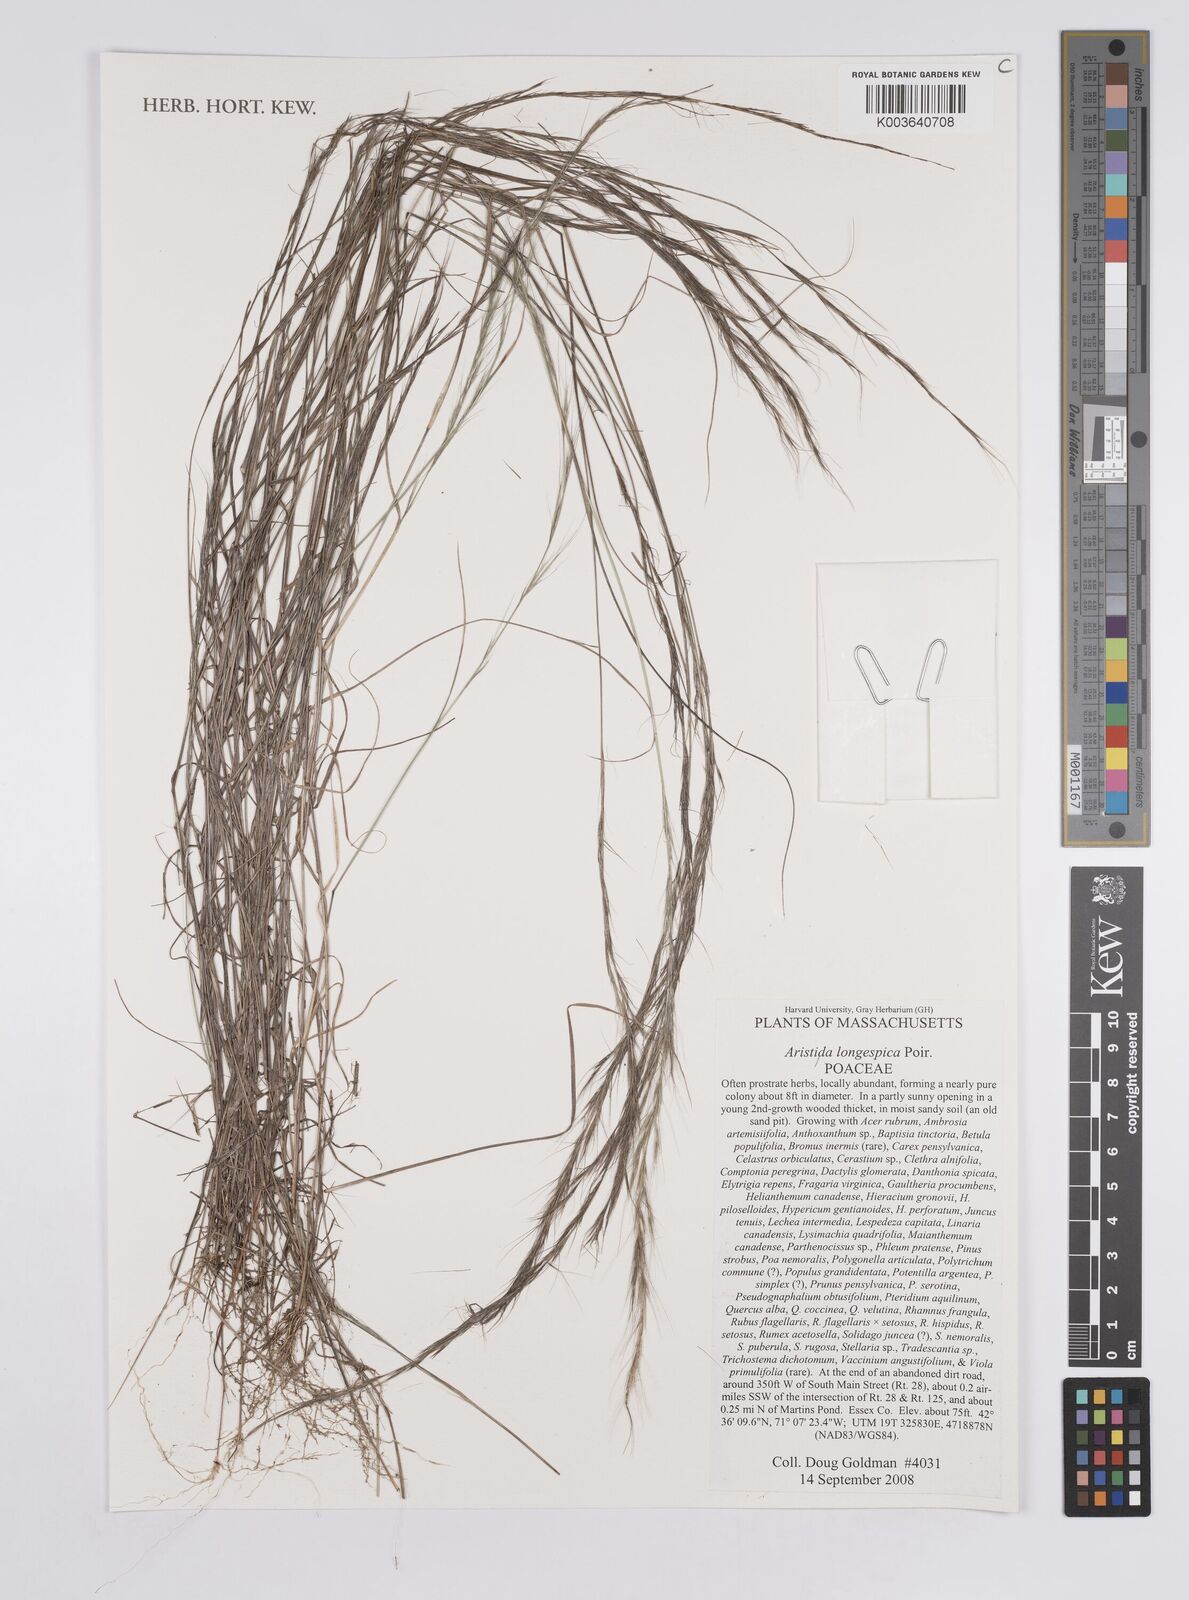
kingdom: Plantae
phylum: Tracheophyta
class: Liliopsida
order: Poales
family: Poaceae
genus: Aristida
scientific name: Aristida longespica
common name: Long-spiked triple-awned grass
